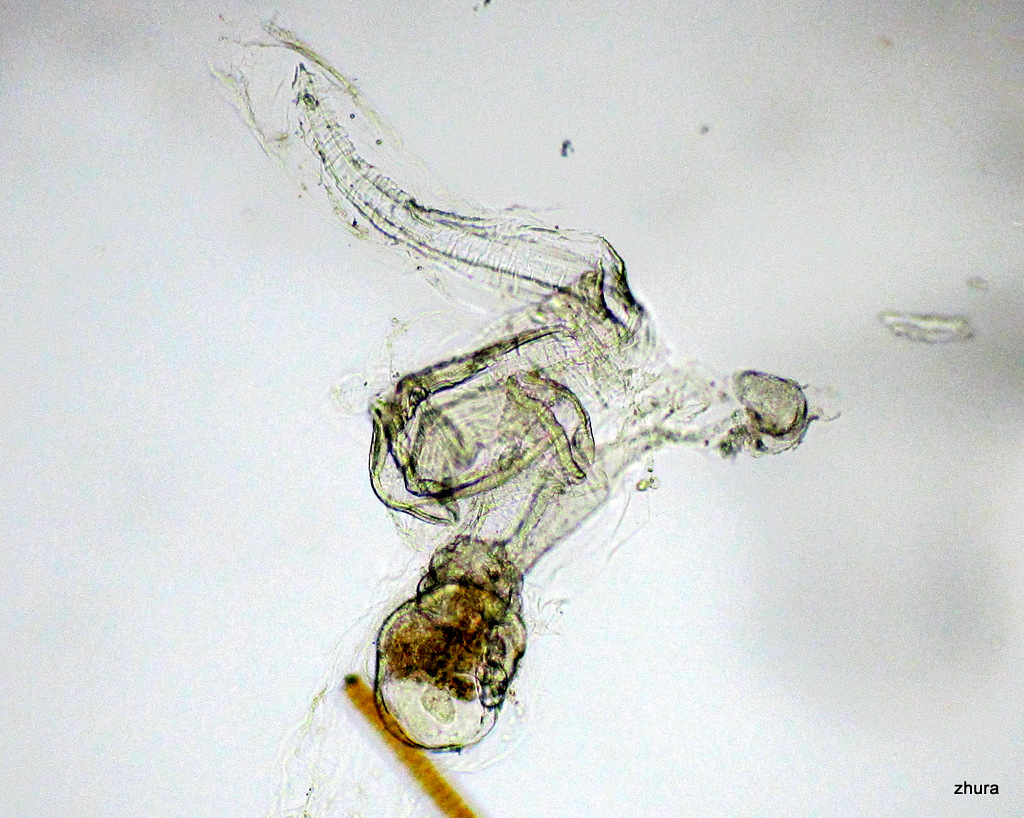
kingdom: Animalia
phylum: Chordata
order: Copelata
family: Fritillariidae
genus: Fritillaria
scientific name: Fritillaria borealis
